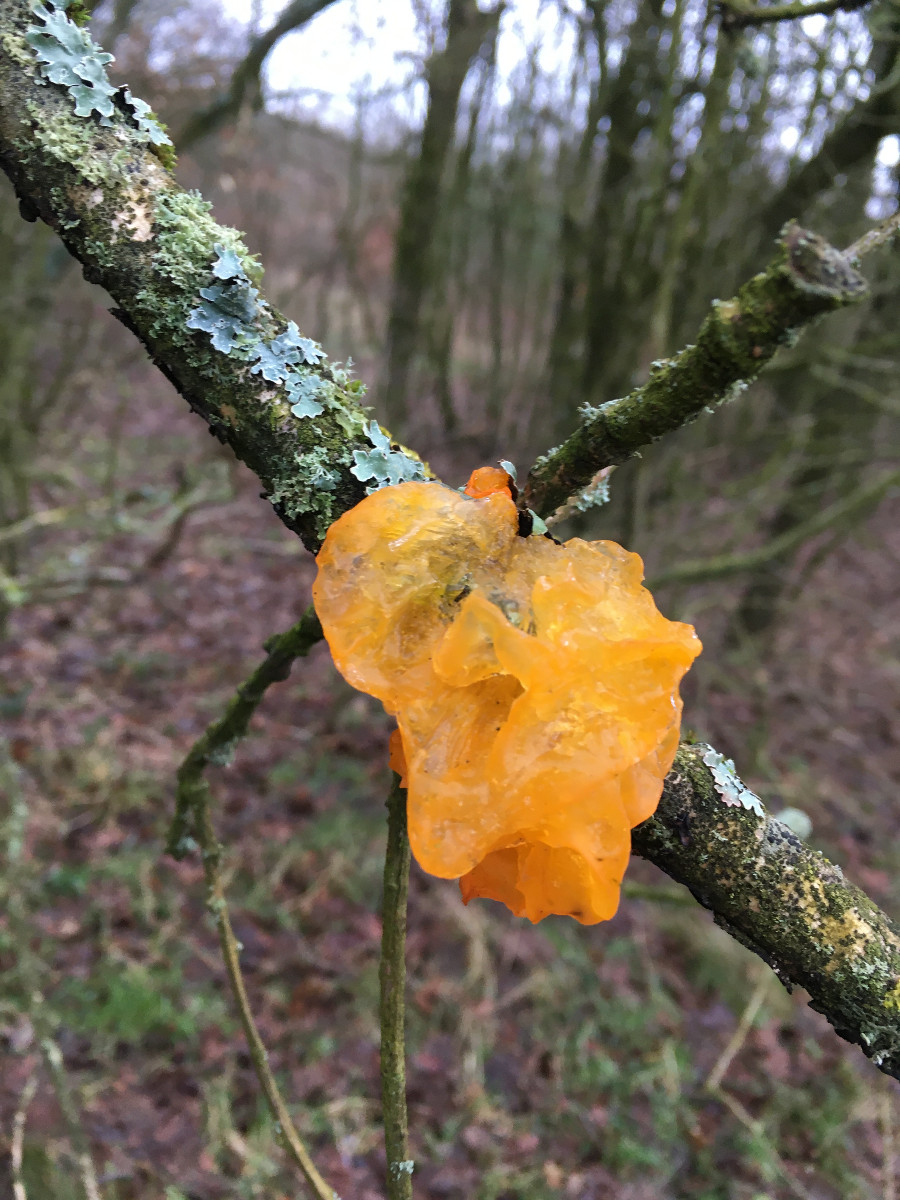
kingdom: Fungi
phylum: Basidiomycota
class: Tremellomycetes
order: Tremellales
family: Tremellaceae
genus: Tremella
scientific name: Tremella mesenterica
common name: gul bævresvamp
